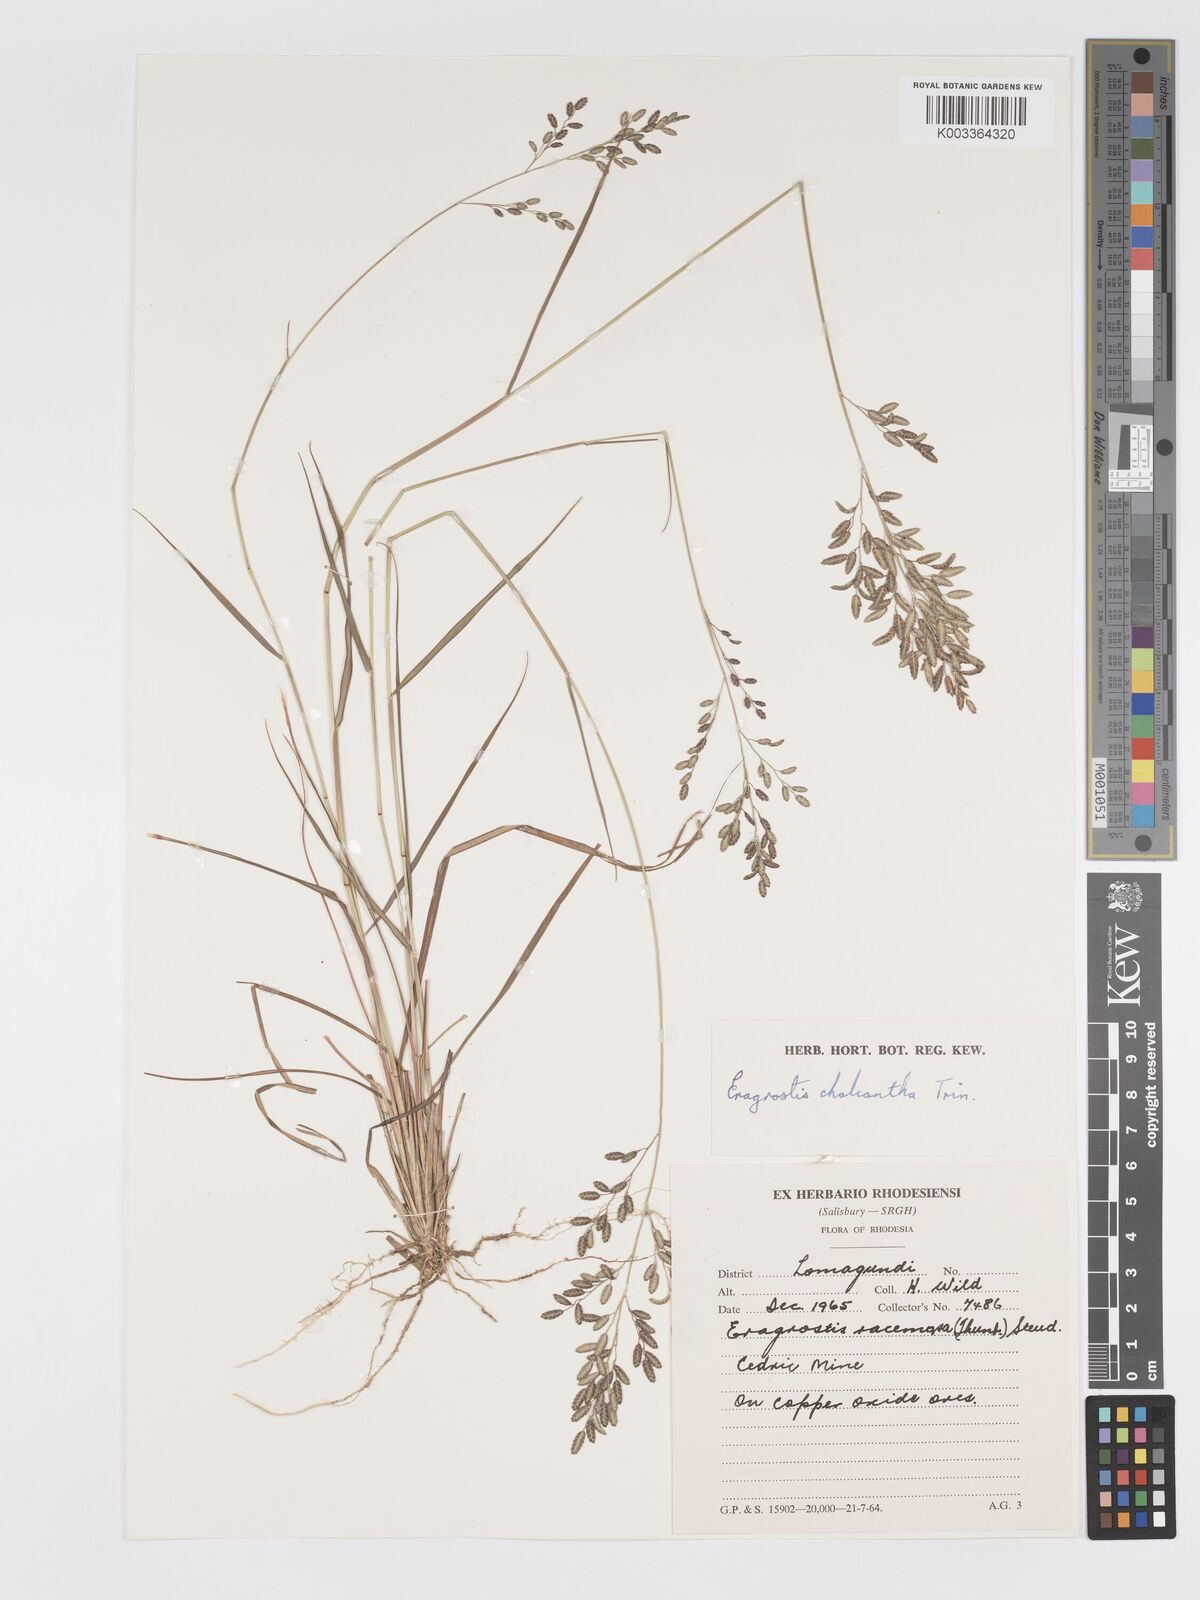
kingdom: Plantae
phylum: Tracheophyta
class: Liliopsida
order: Poales
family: Poaceae
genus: Eragrostis
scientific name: Eragrostis racemosa
